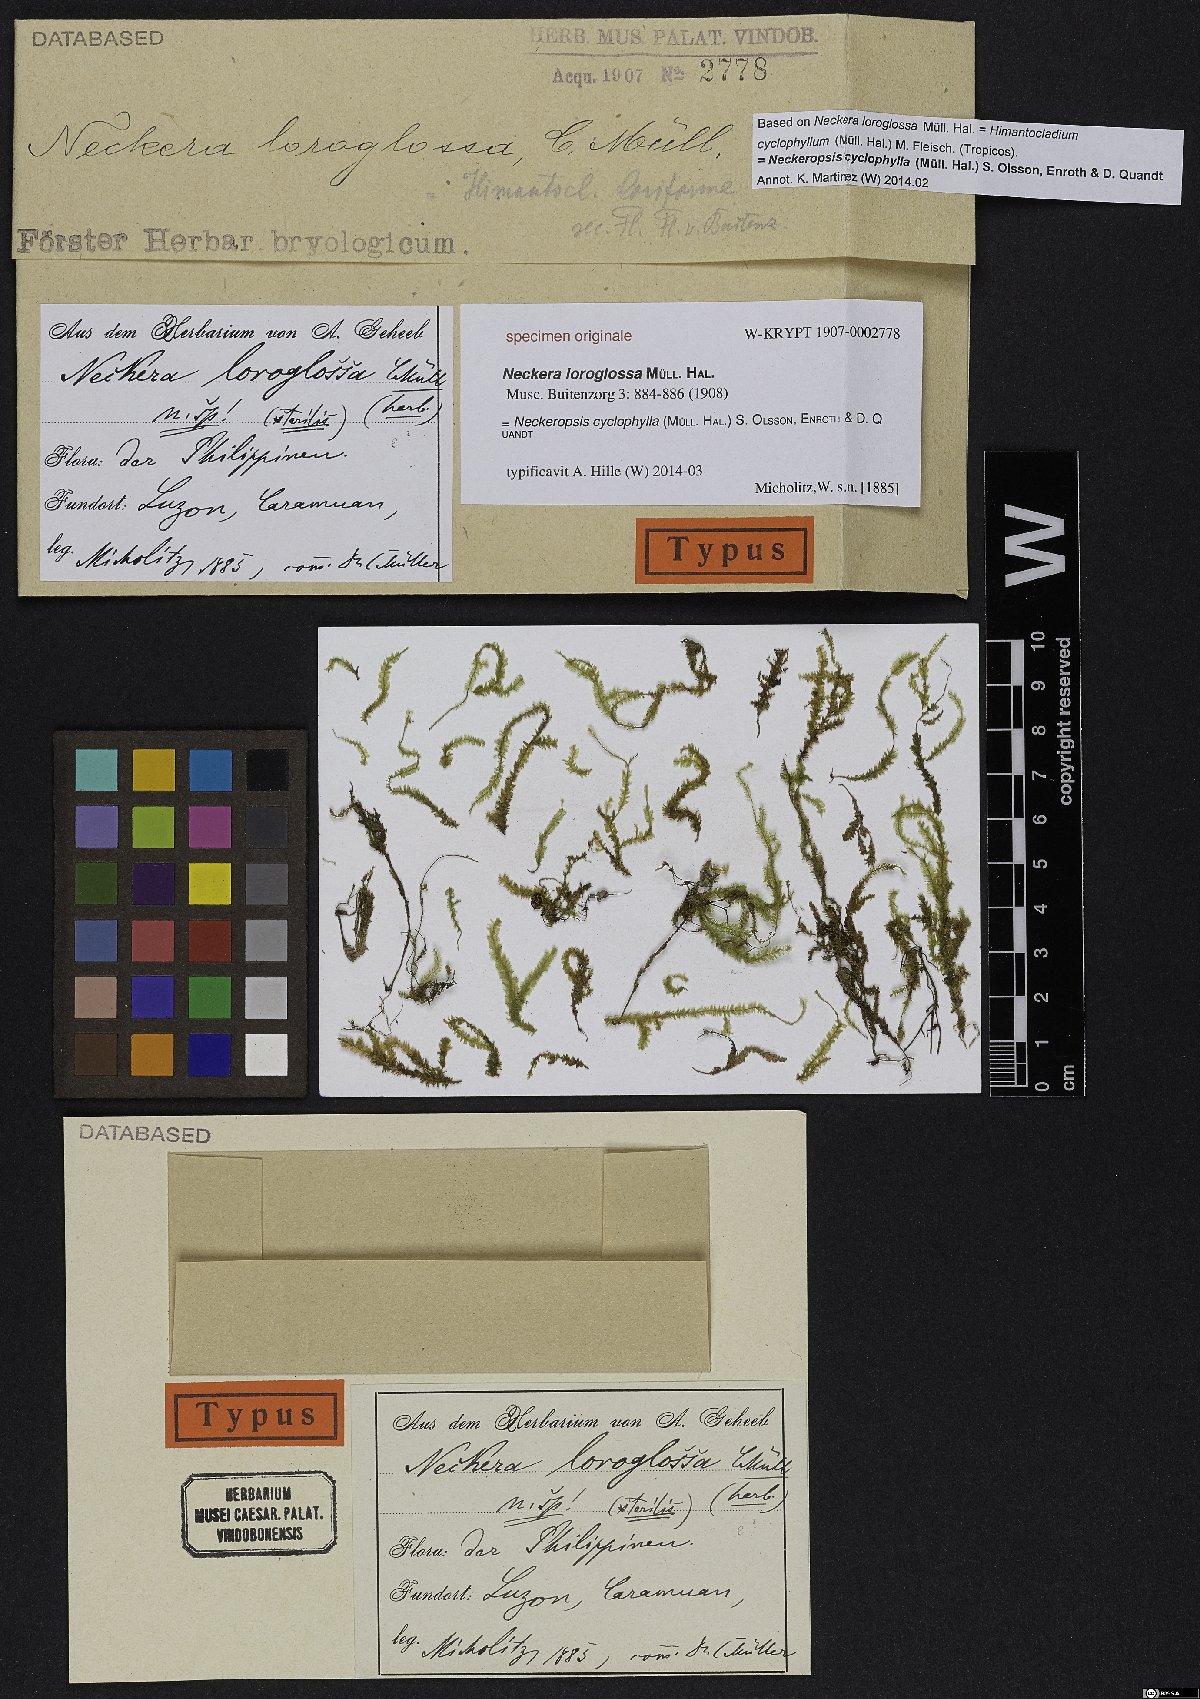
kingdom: Plantae
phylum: Bryophyta
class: Bryopsida
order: Hypnales
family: Neckeraceae
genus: Neckeropsis
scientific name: Neckeropsis cyclophylla
